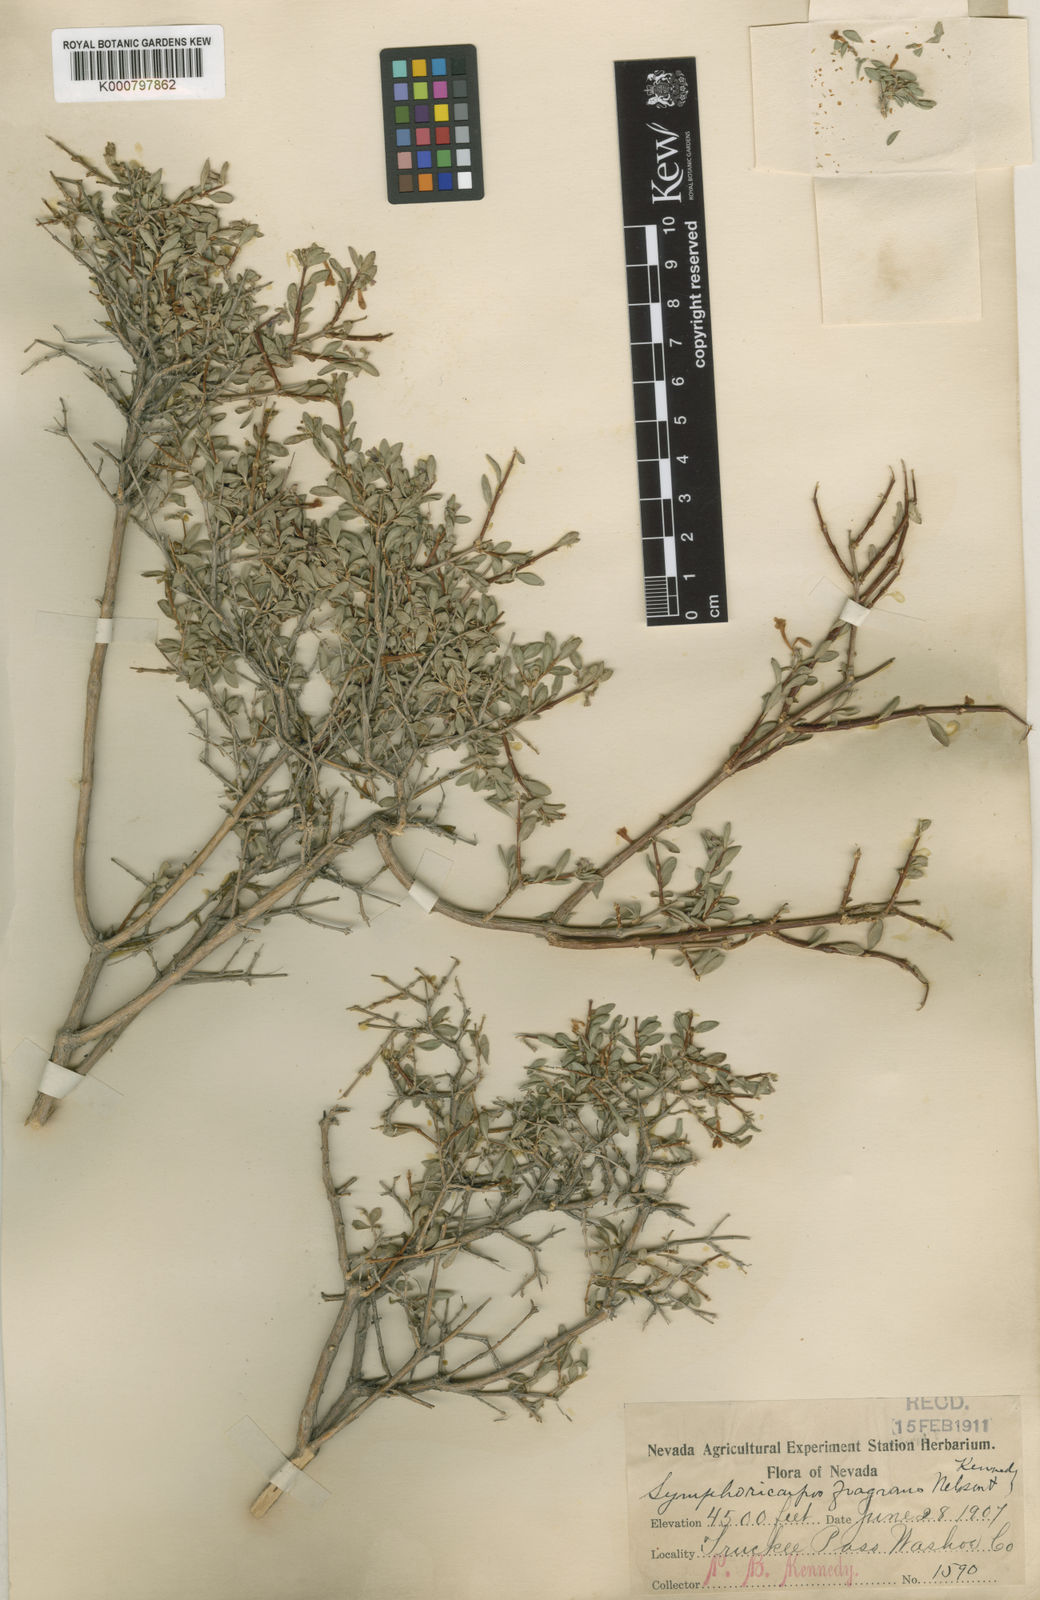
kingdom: Plantae
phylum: Tracheophyta
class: Magnoliopsida
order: Dipsacales
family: Caprifoliaceae
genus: Symphoricarpos
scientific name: Symphoricarpos longiflorus
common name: Fragrant snowberry
